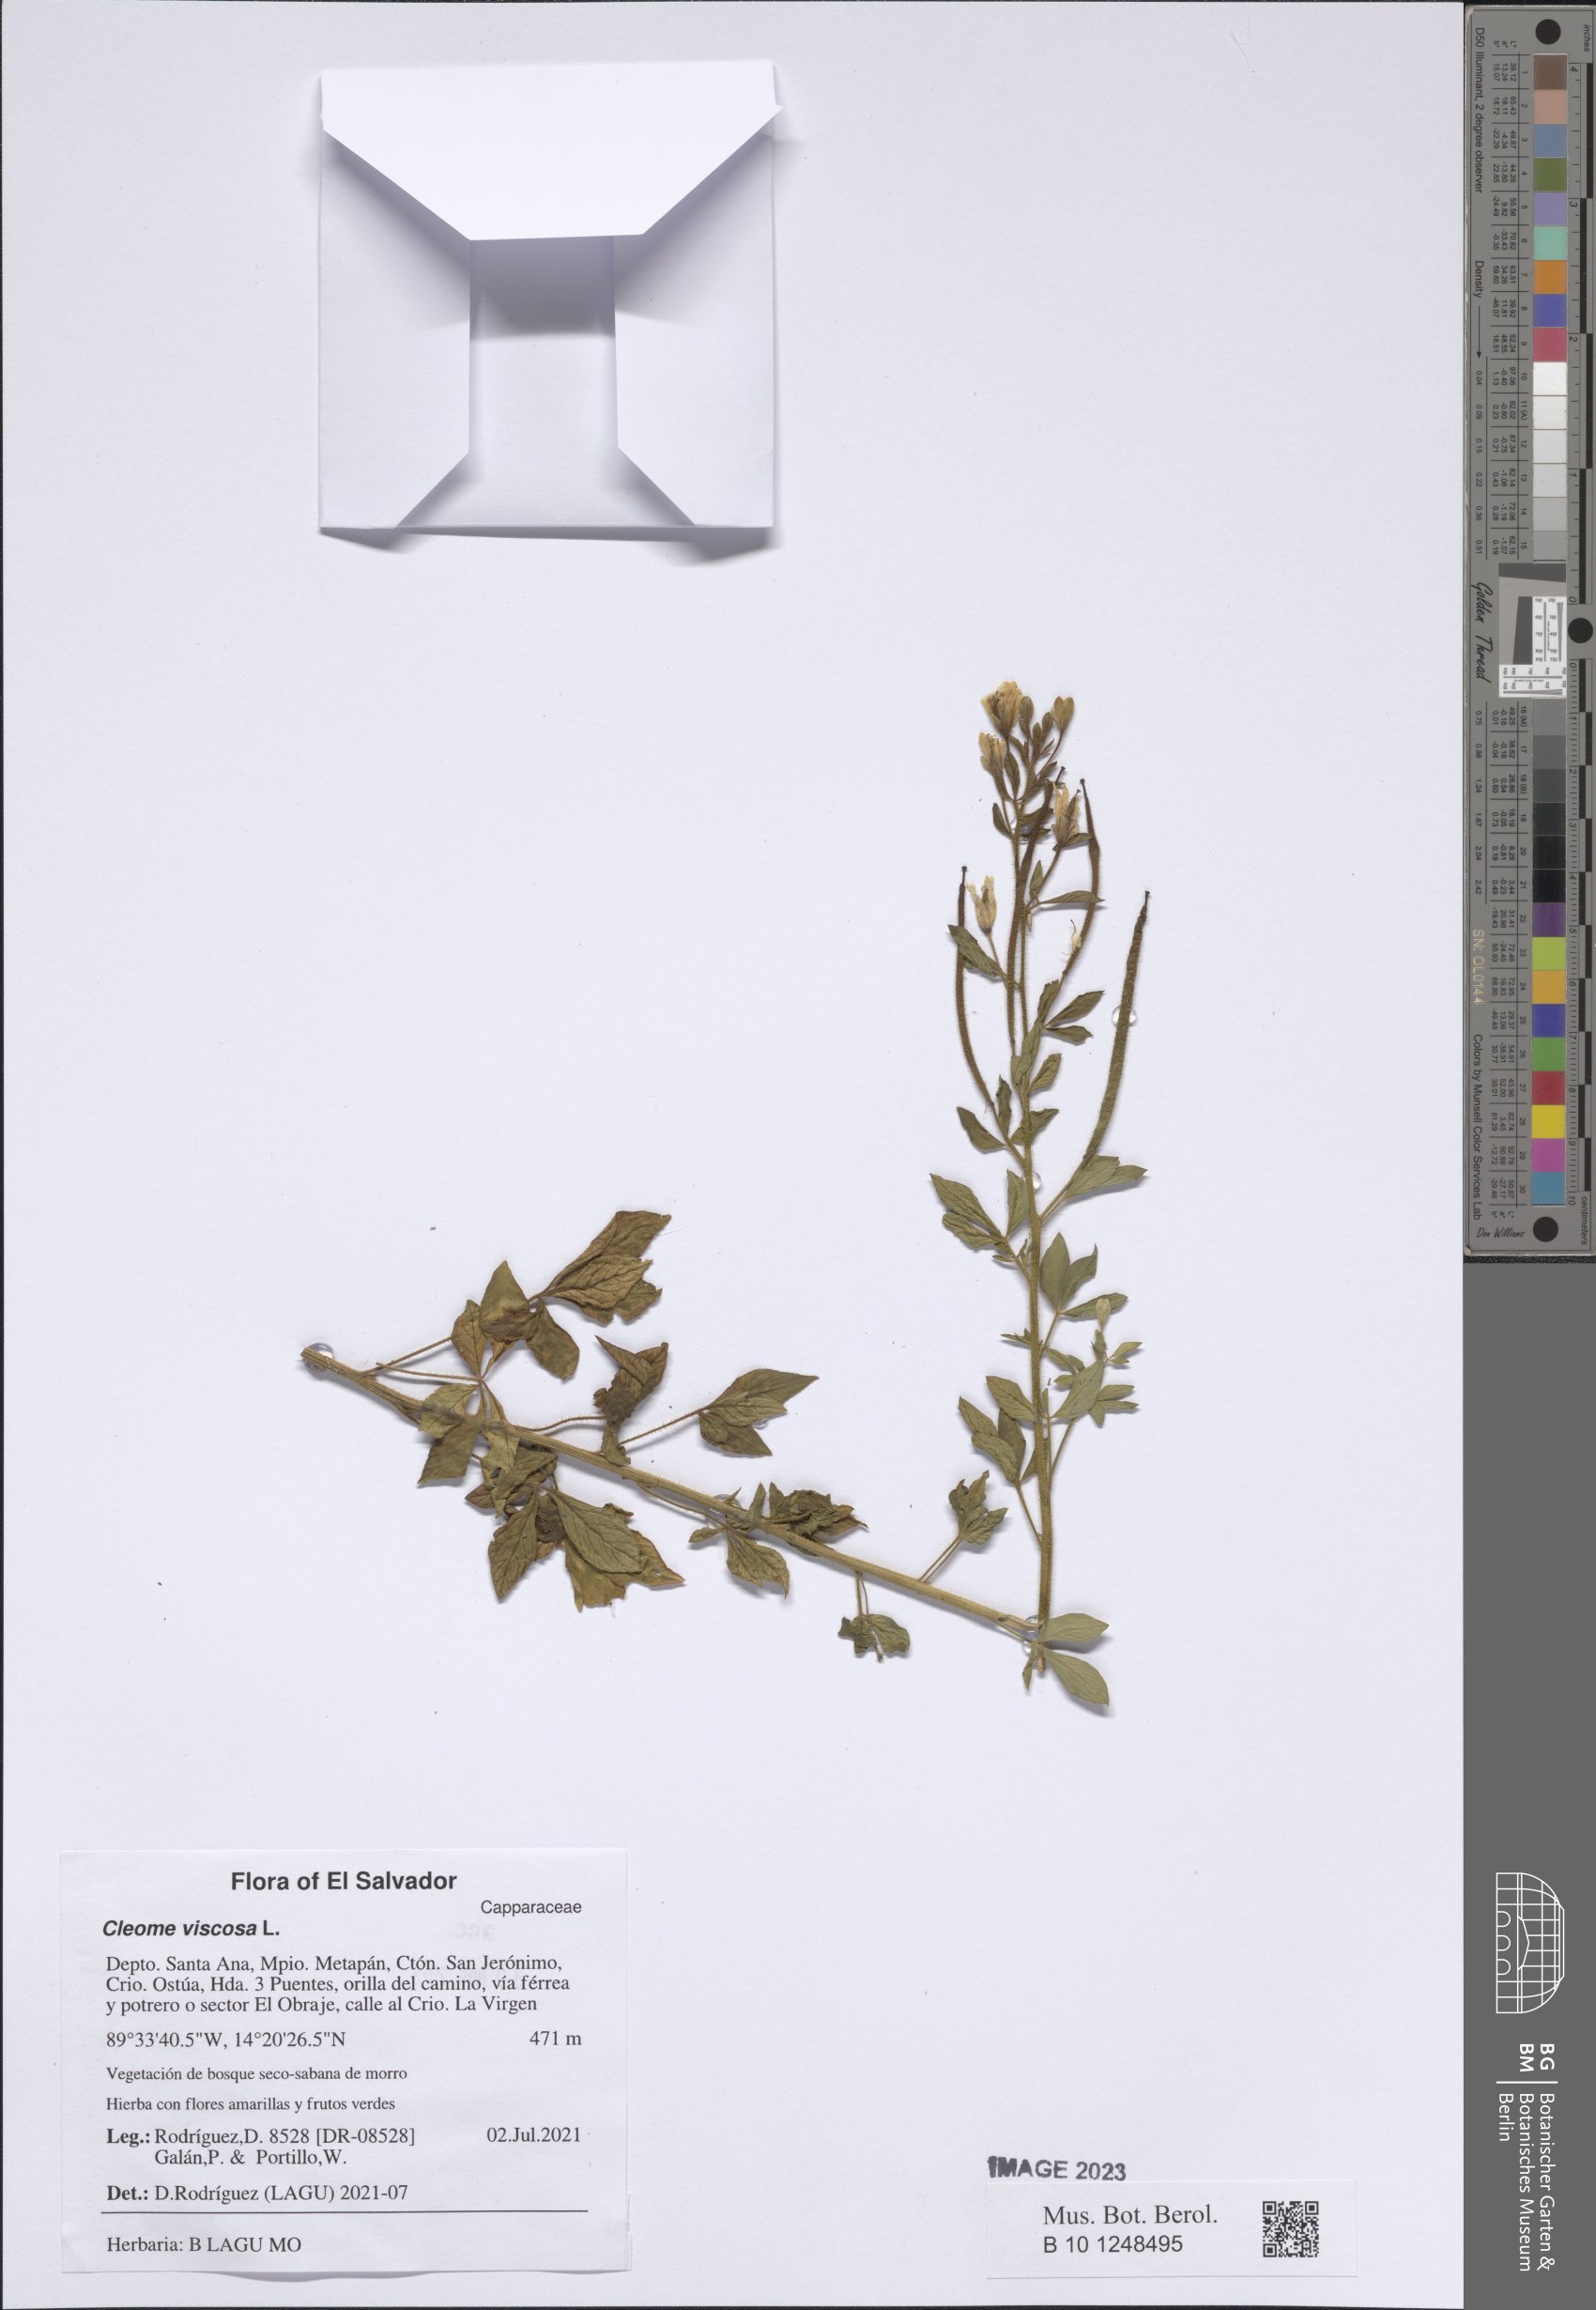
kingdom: Plantae
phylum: Tracheophyta
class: Magnoliopsida
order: Brassicales
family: Cleomaceae
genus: Arivela
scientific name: Arivela viscosa
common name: Asian spiderflower
